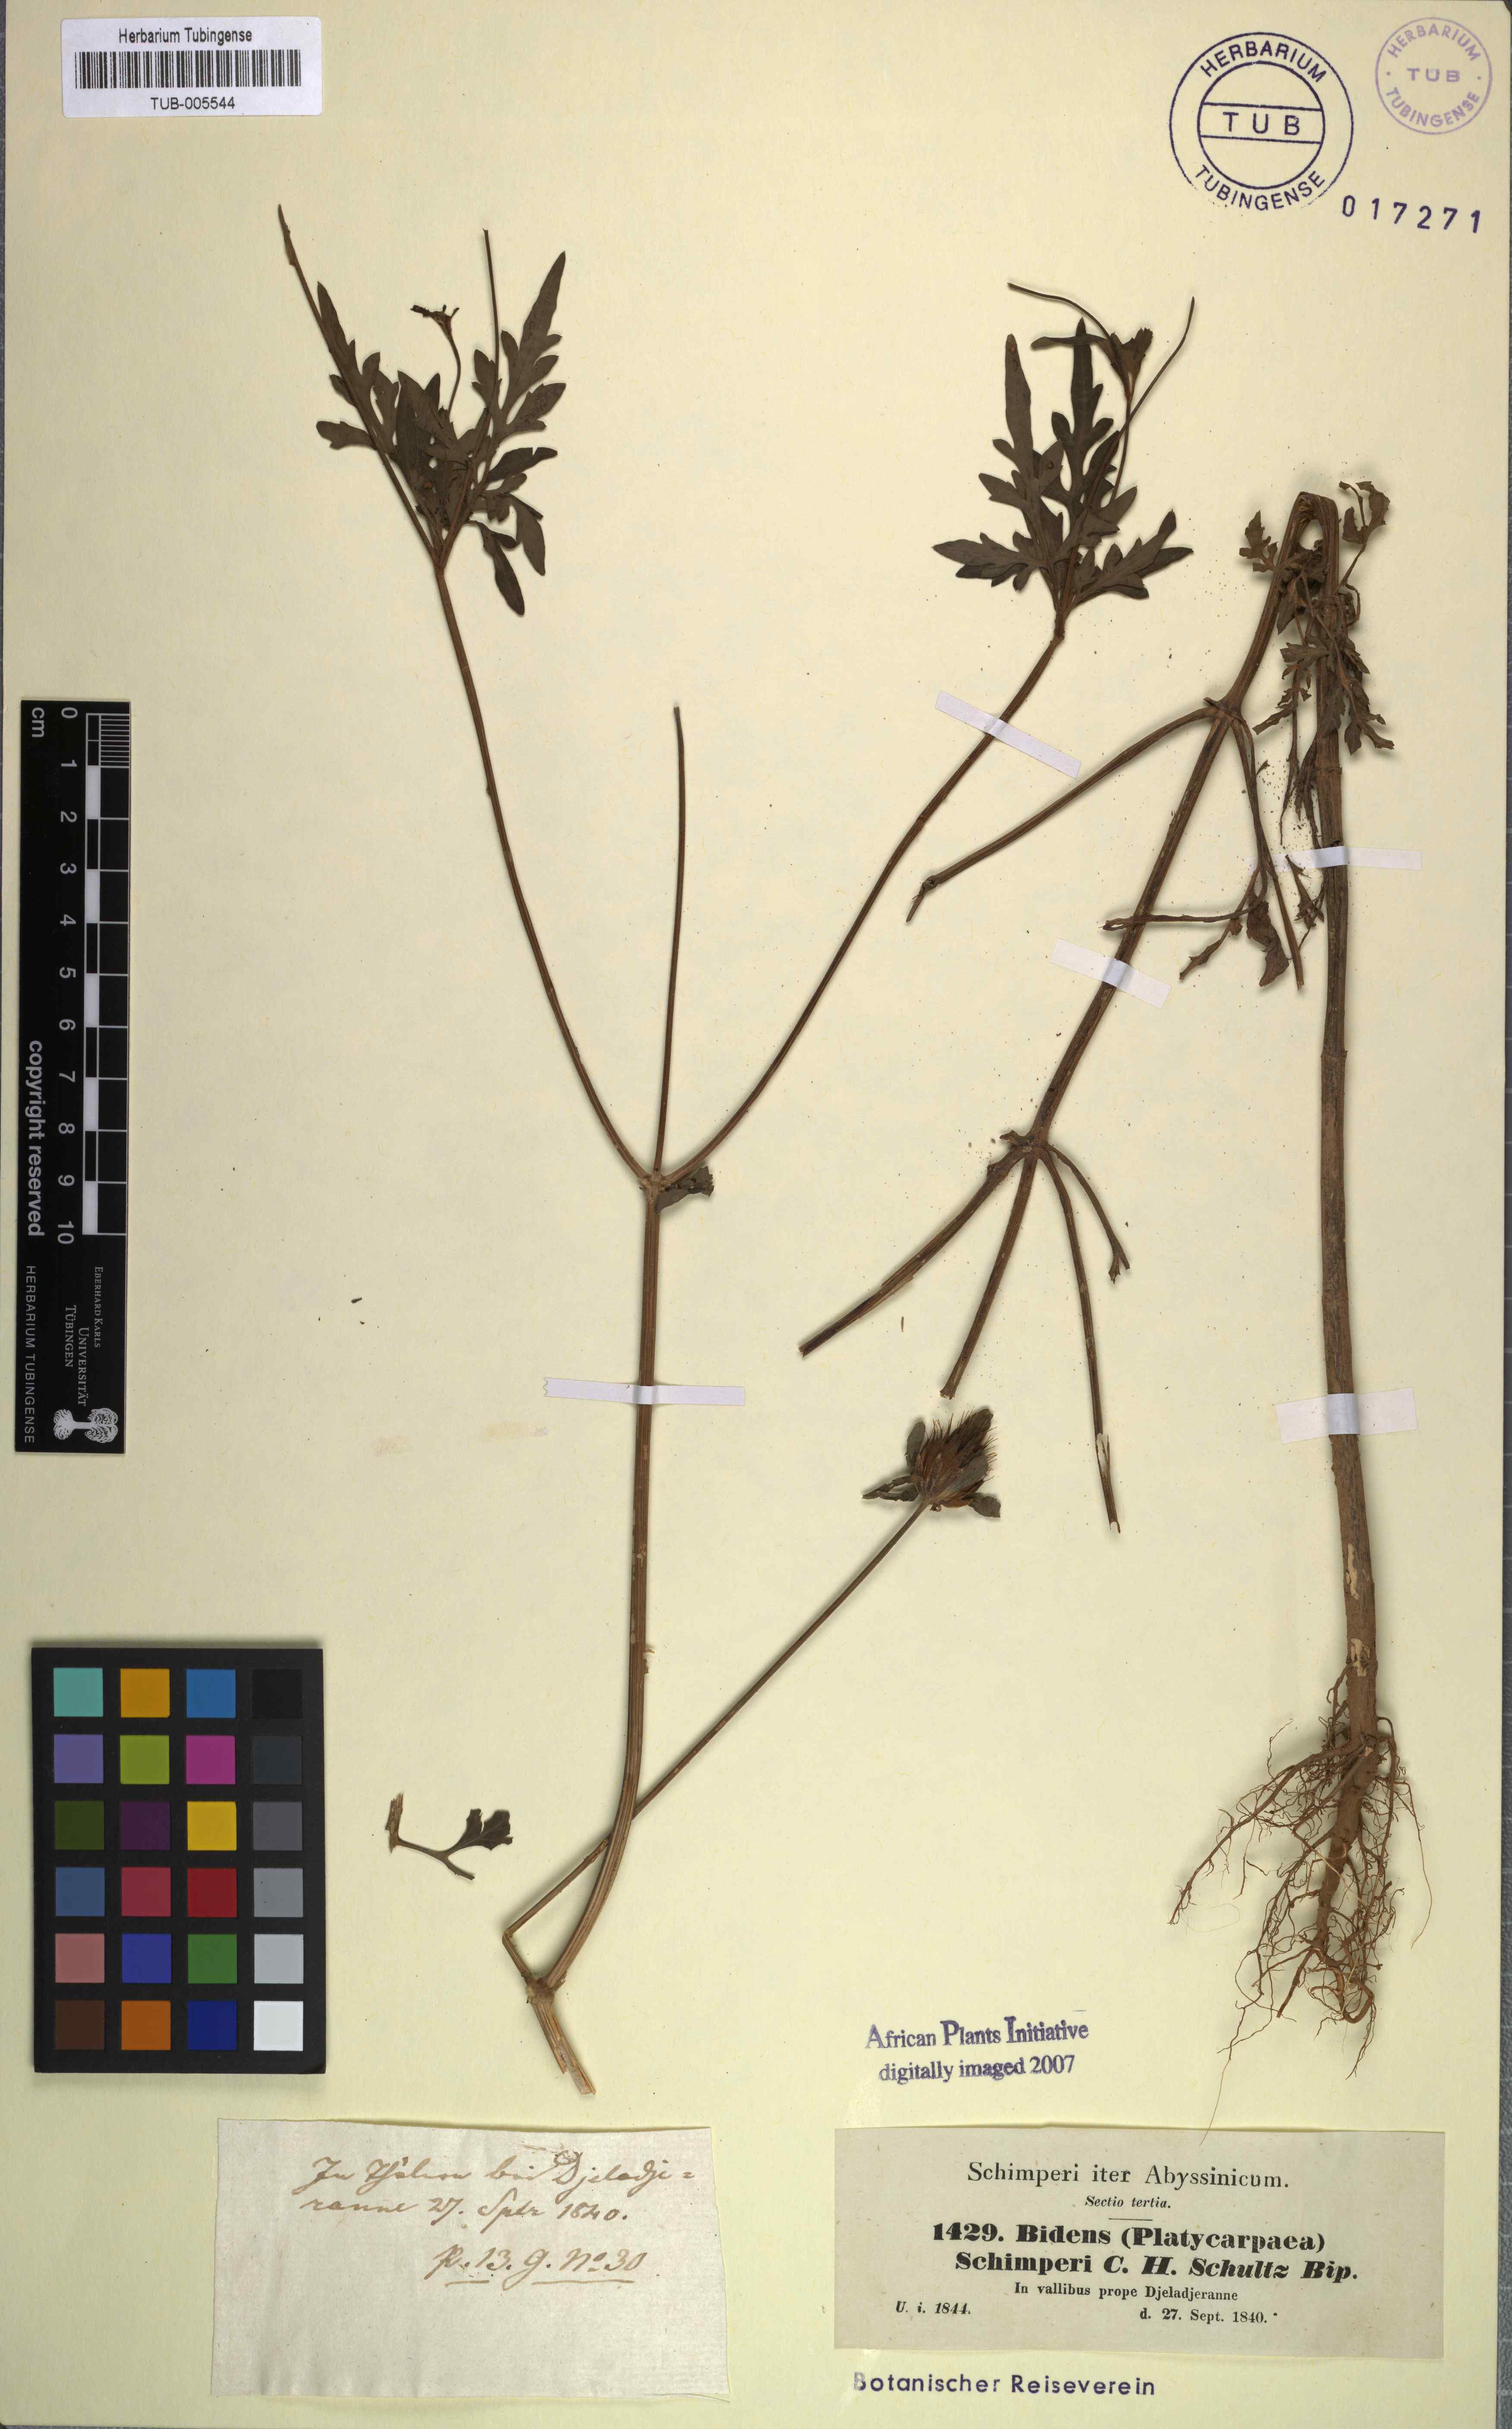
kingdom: Plantae
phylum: Tracheophyta
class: Magnoliopsida
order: Asterales
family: Asteraceae
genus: Bidens
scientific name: Bidens schimperi
